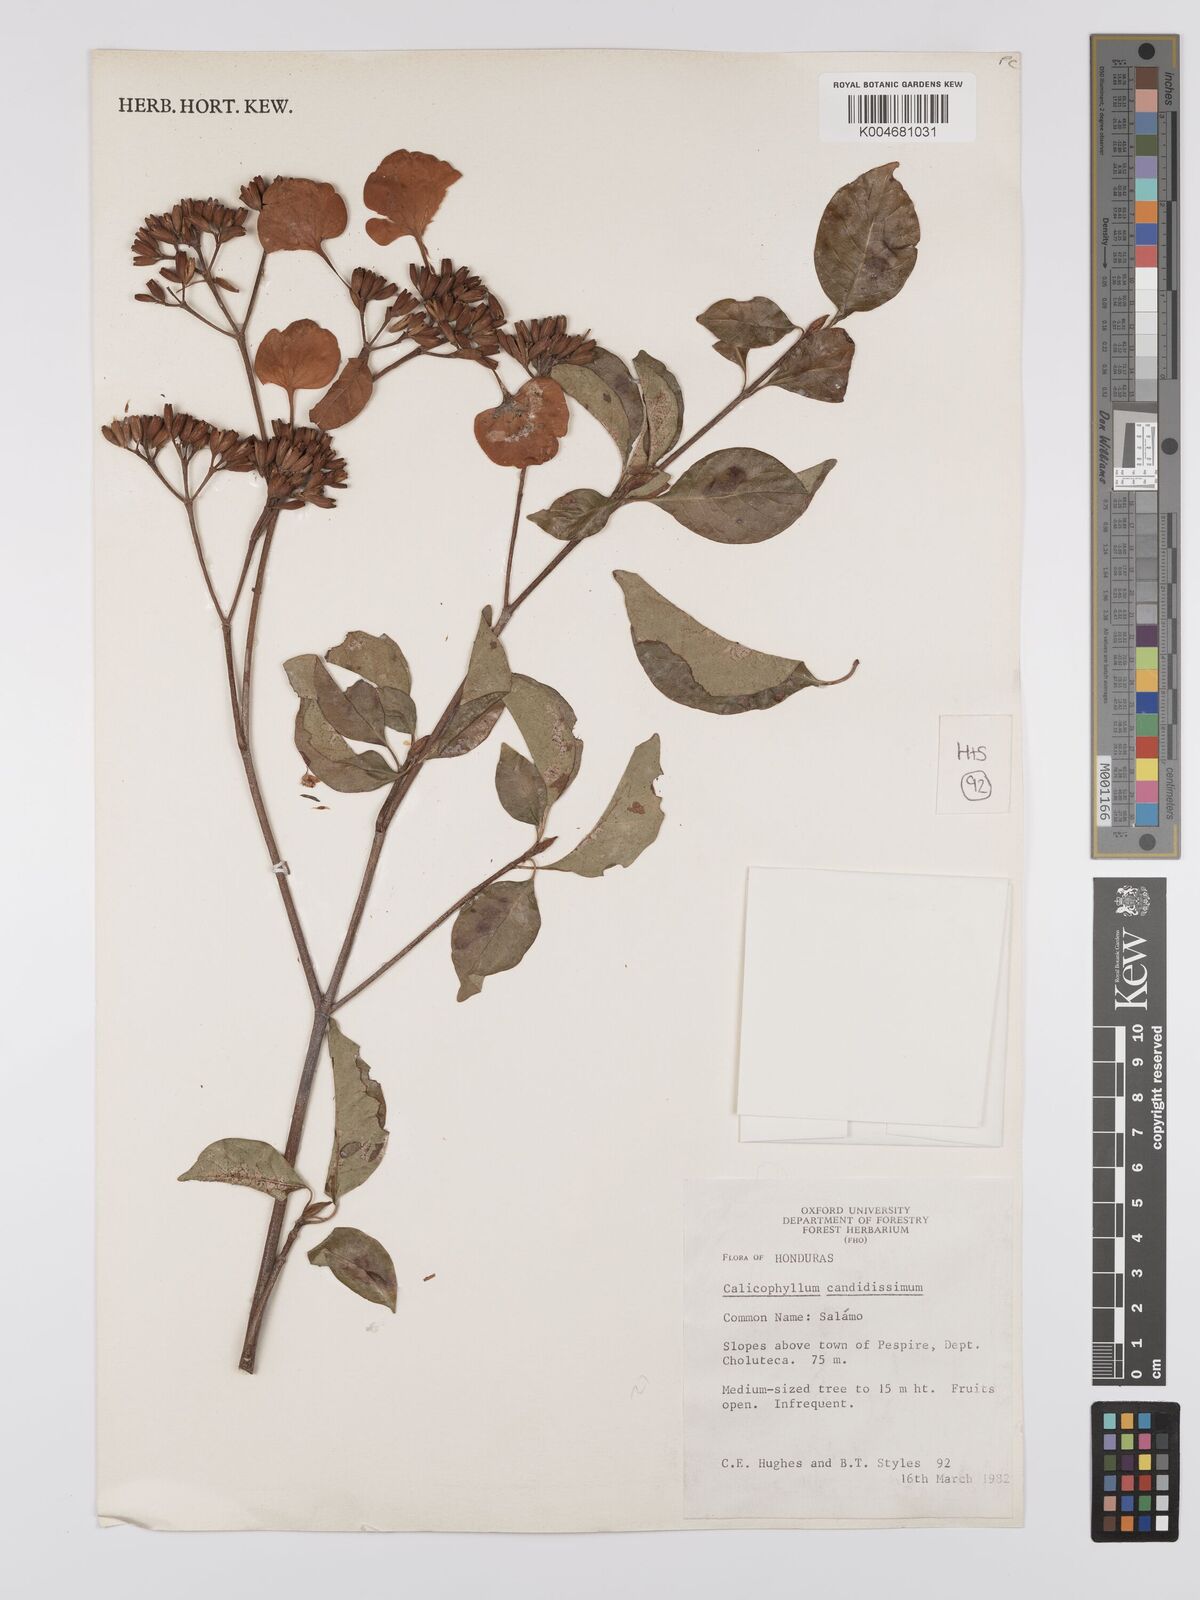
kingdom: Plantae
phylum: Tracheophyta
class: Magnoliopsida
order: Gentianales
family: Rubiaceae
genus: Calycophyllum
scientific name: Calycophyllum candidissimum
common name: Dagame
